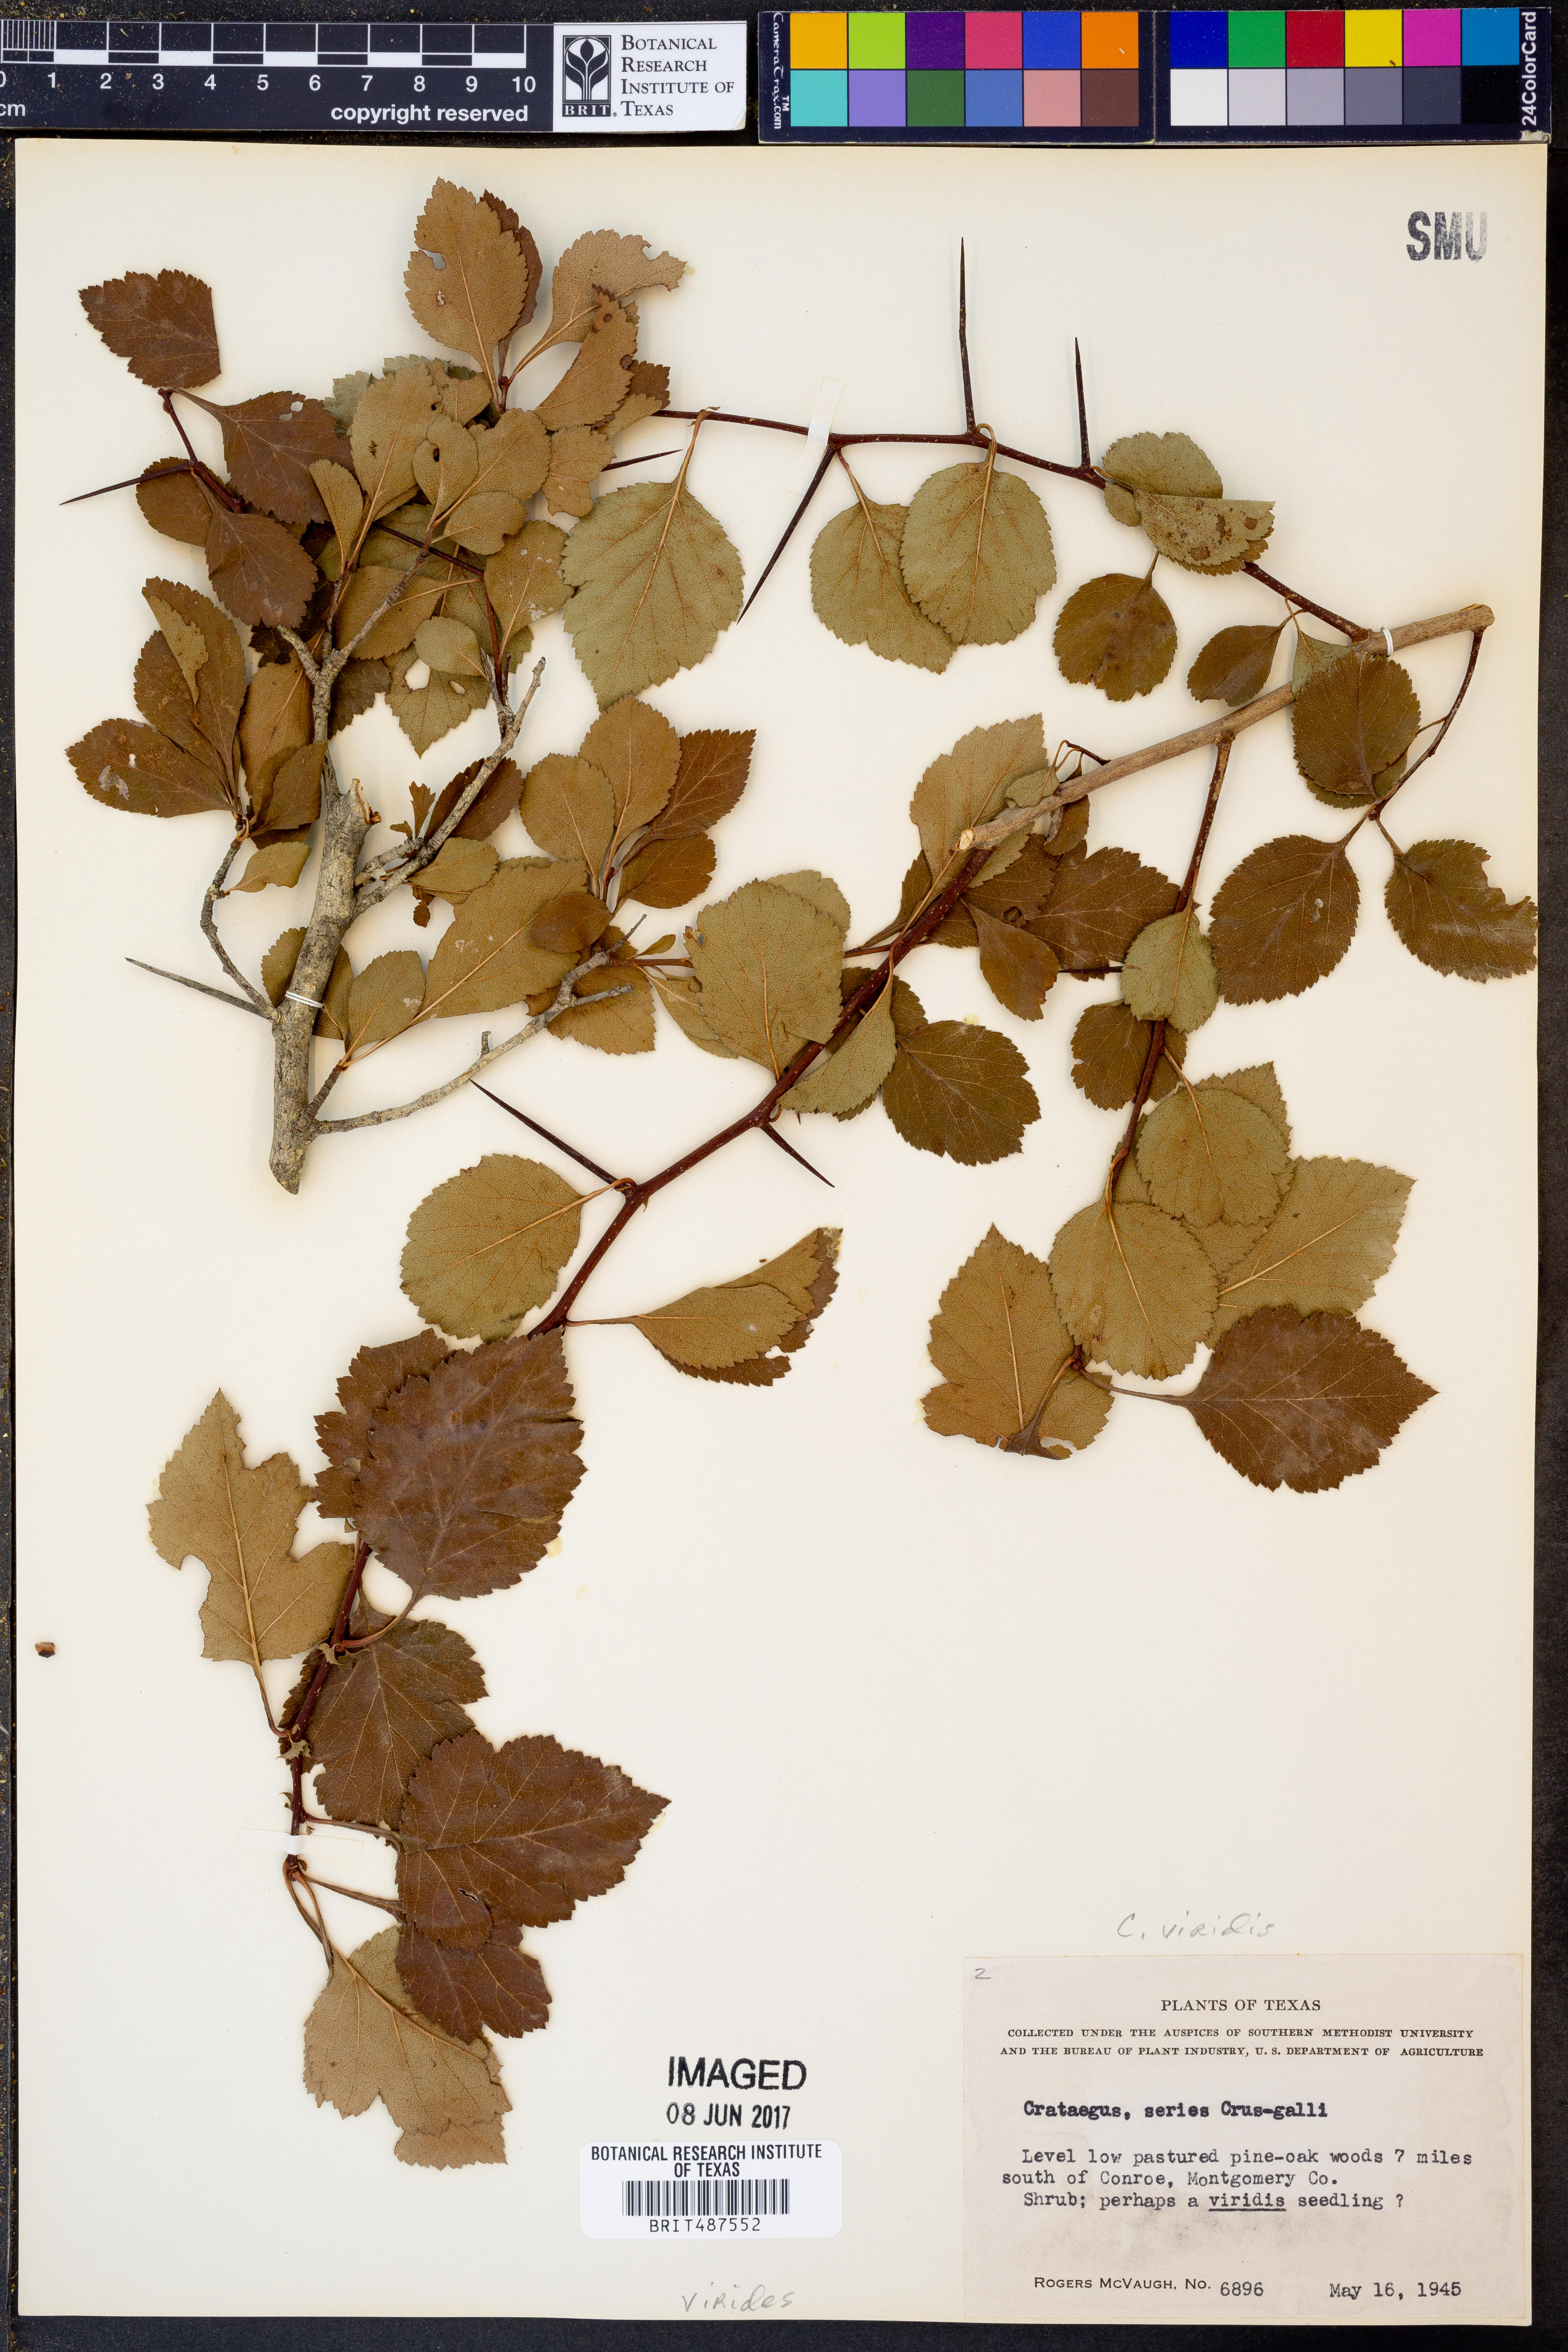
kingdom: Plantae
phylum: Tracheophyta
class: Magnoliopsida
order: Rosales
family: Rosaceae
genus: Crataegus
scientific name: Crataegus viridis
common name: Southernthorn
